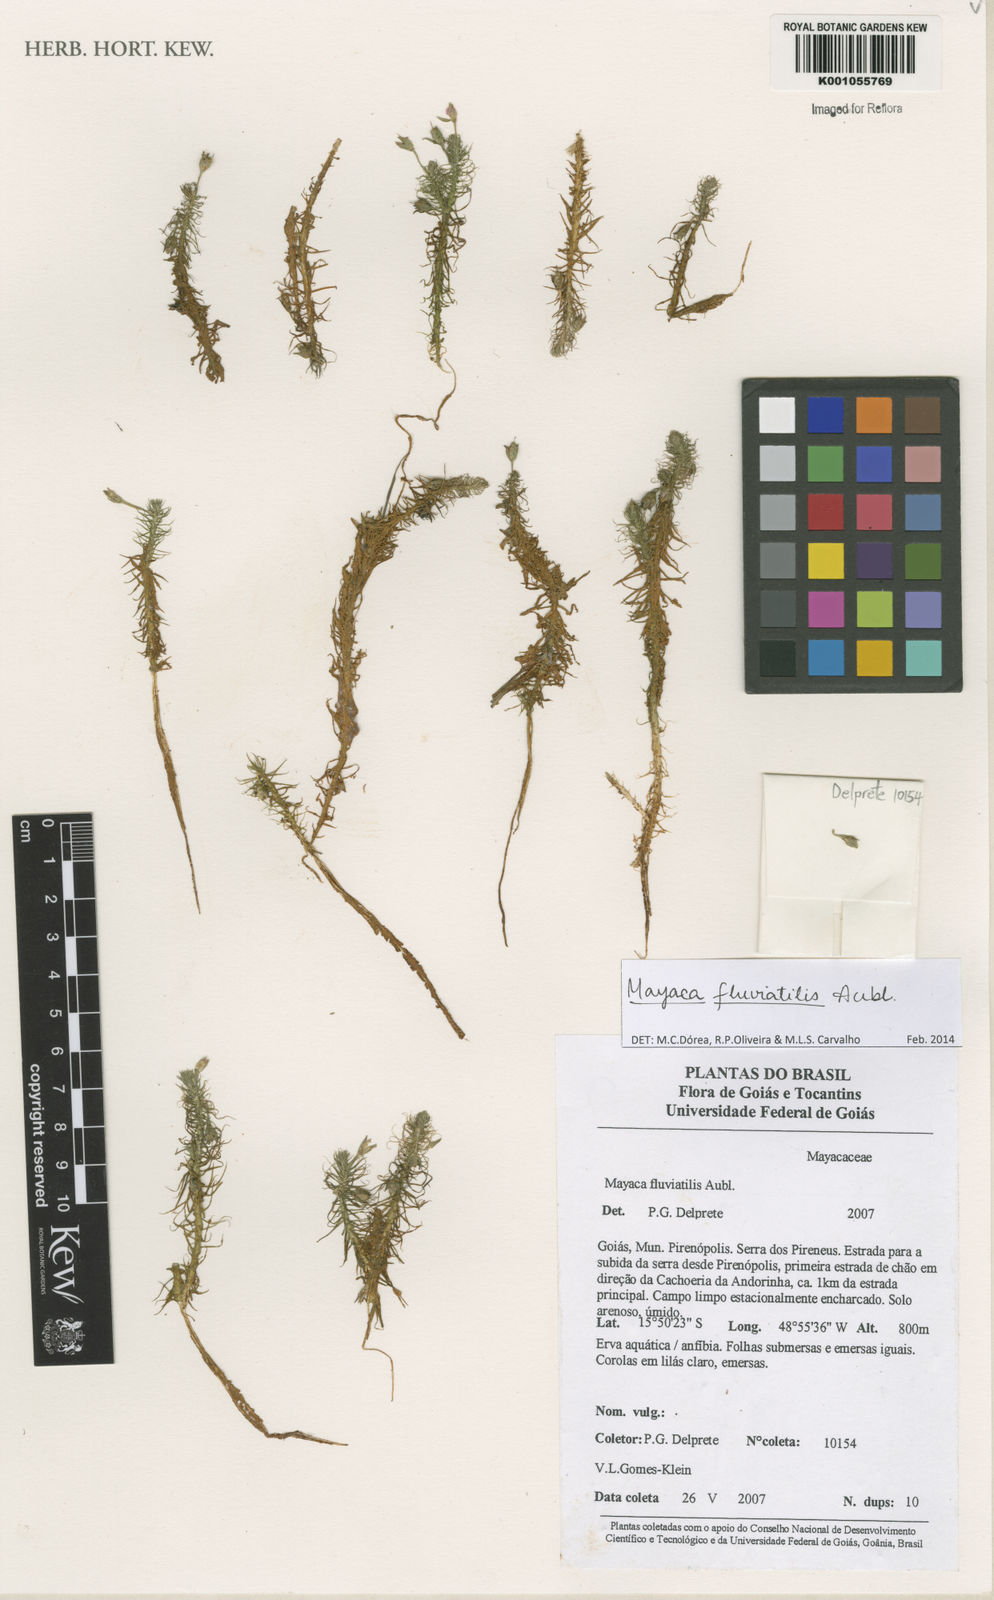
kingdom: Plantae
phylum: Tracheophyta
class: Liliopsida
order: Poales
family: Mayacaceae
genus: Mayaca
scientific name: Mayaca
